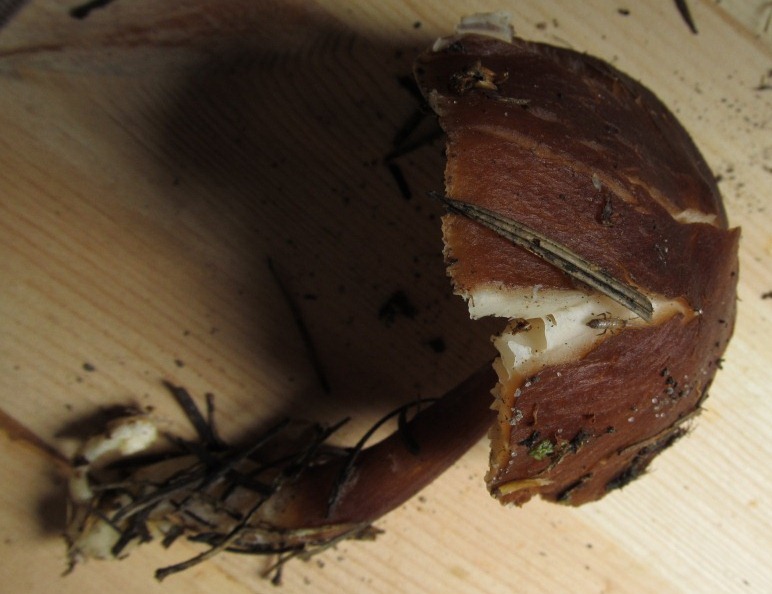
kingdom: Fungi
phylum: Basidiomycota
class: Agaricomycetes
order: Agaricales
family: Omphalotaceae
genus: Rhodocollybia
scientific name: Rhodocollybia prolixa
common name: furestokket fladhat
